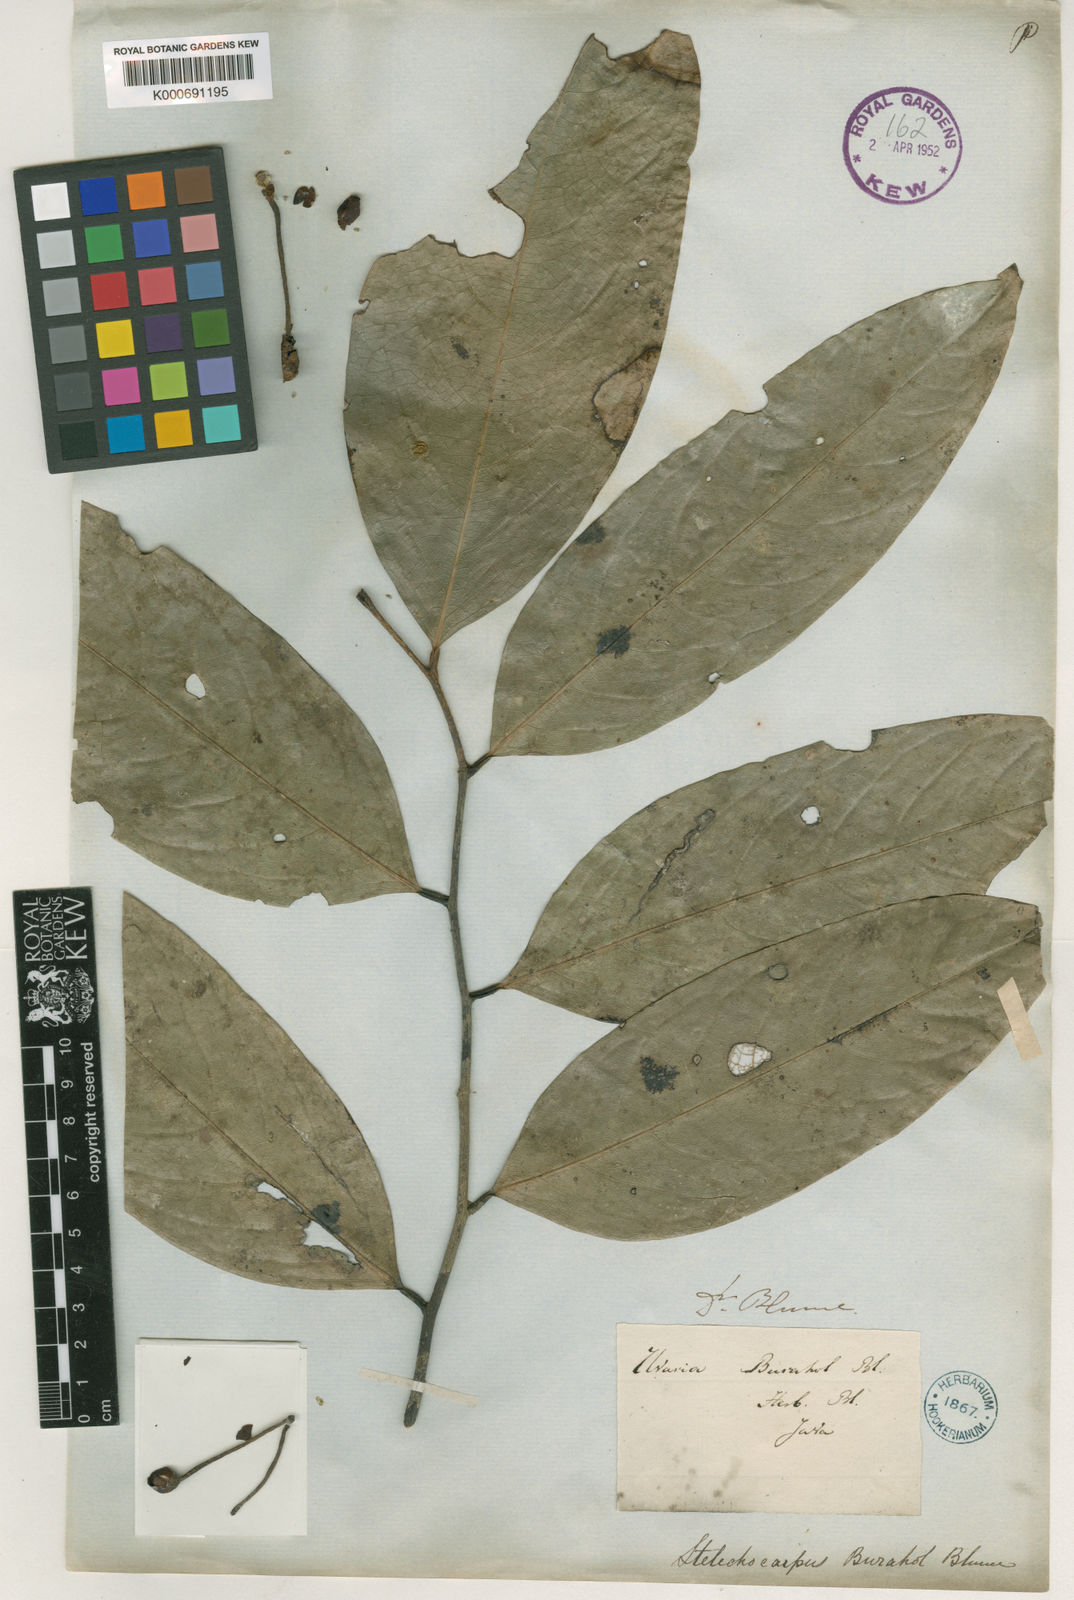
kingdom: Plantae
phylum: Tracheophyta
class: Magnoliopsida
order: Magnoliales
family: Annonaceae
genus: Stelechocarpus
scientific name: Stelechocarpus burahol
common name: Kepel
